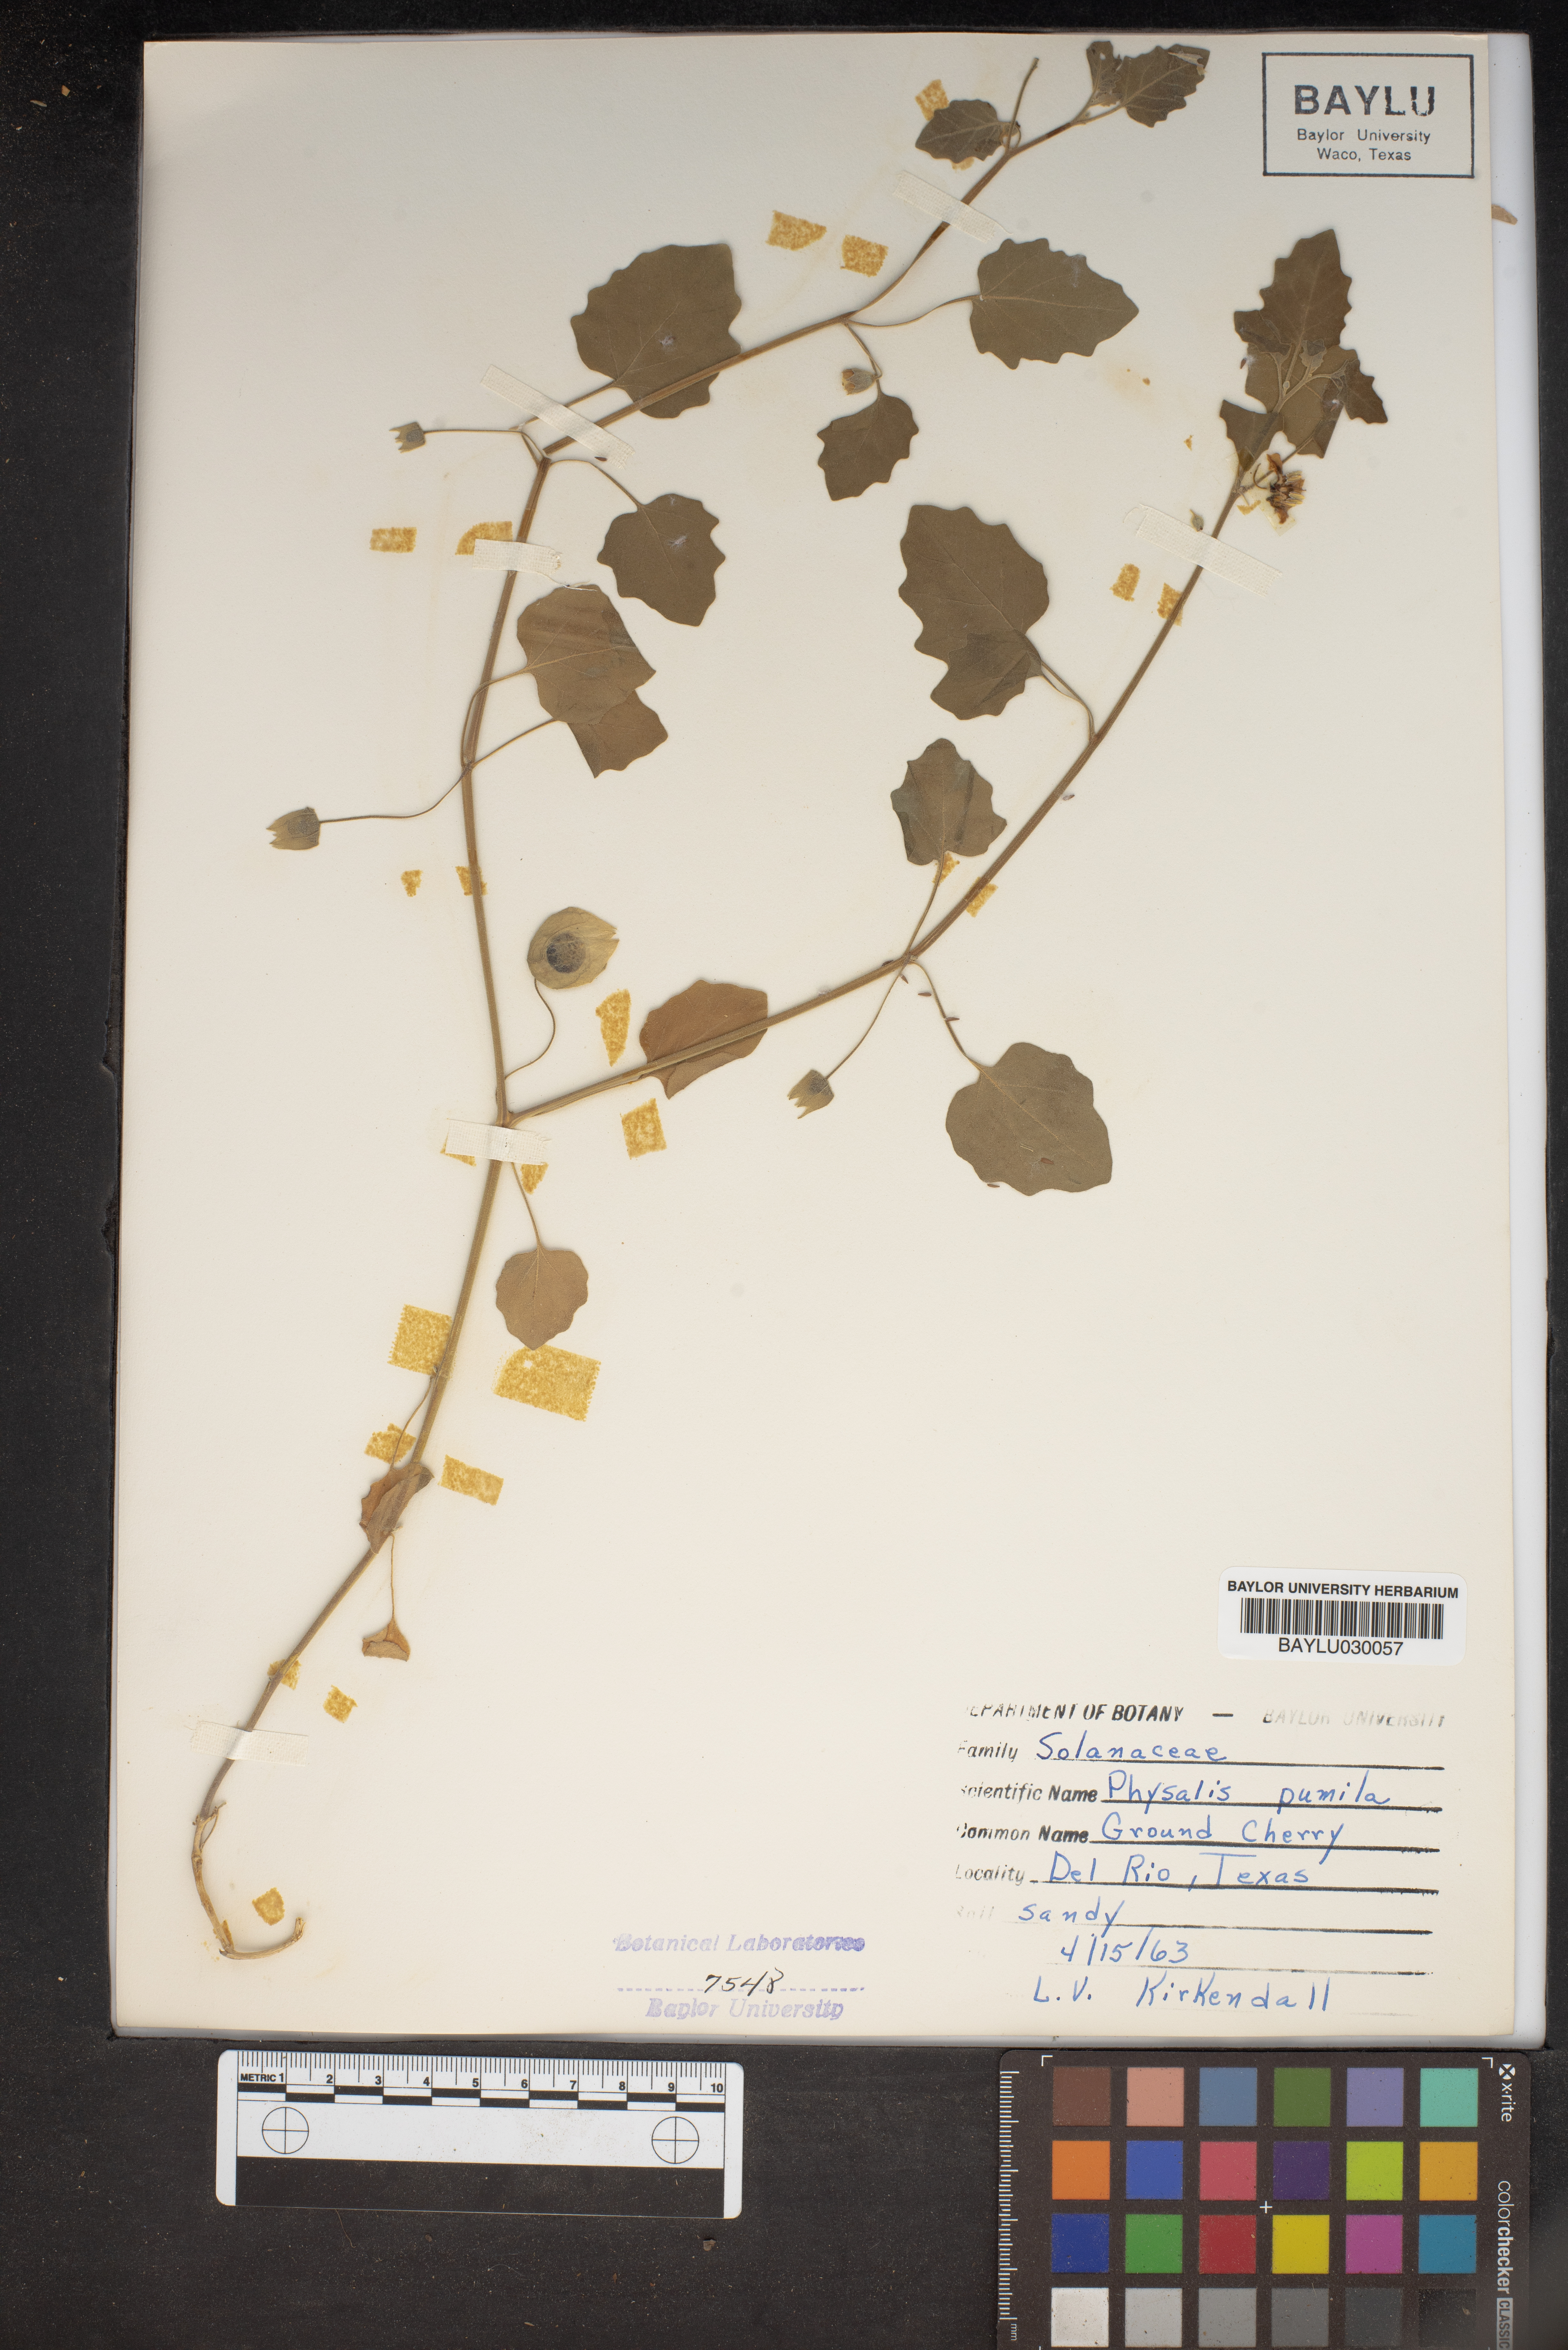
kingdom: Plantae
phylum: Tracheophyta
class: Magnoliopsida
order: Solanales
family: Solanaceae
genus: Physalis
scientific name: Physalis pumila
